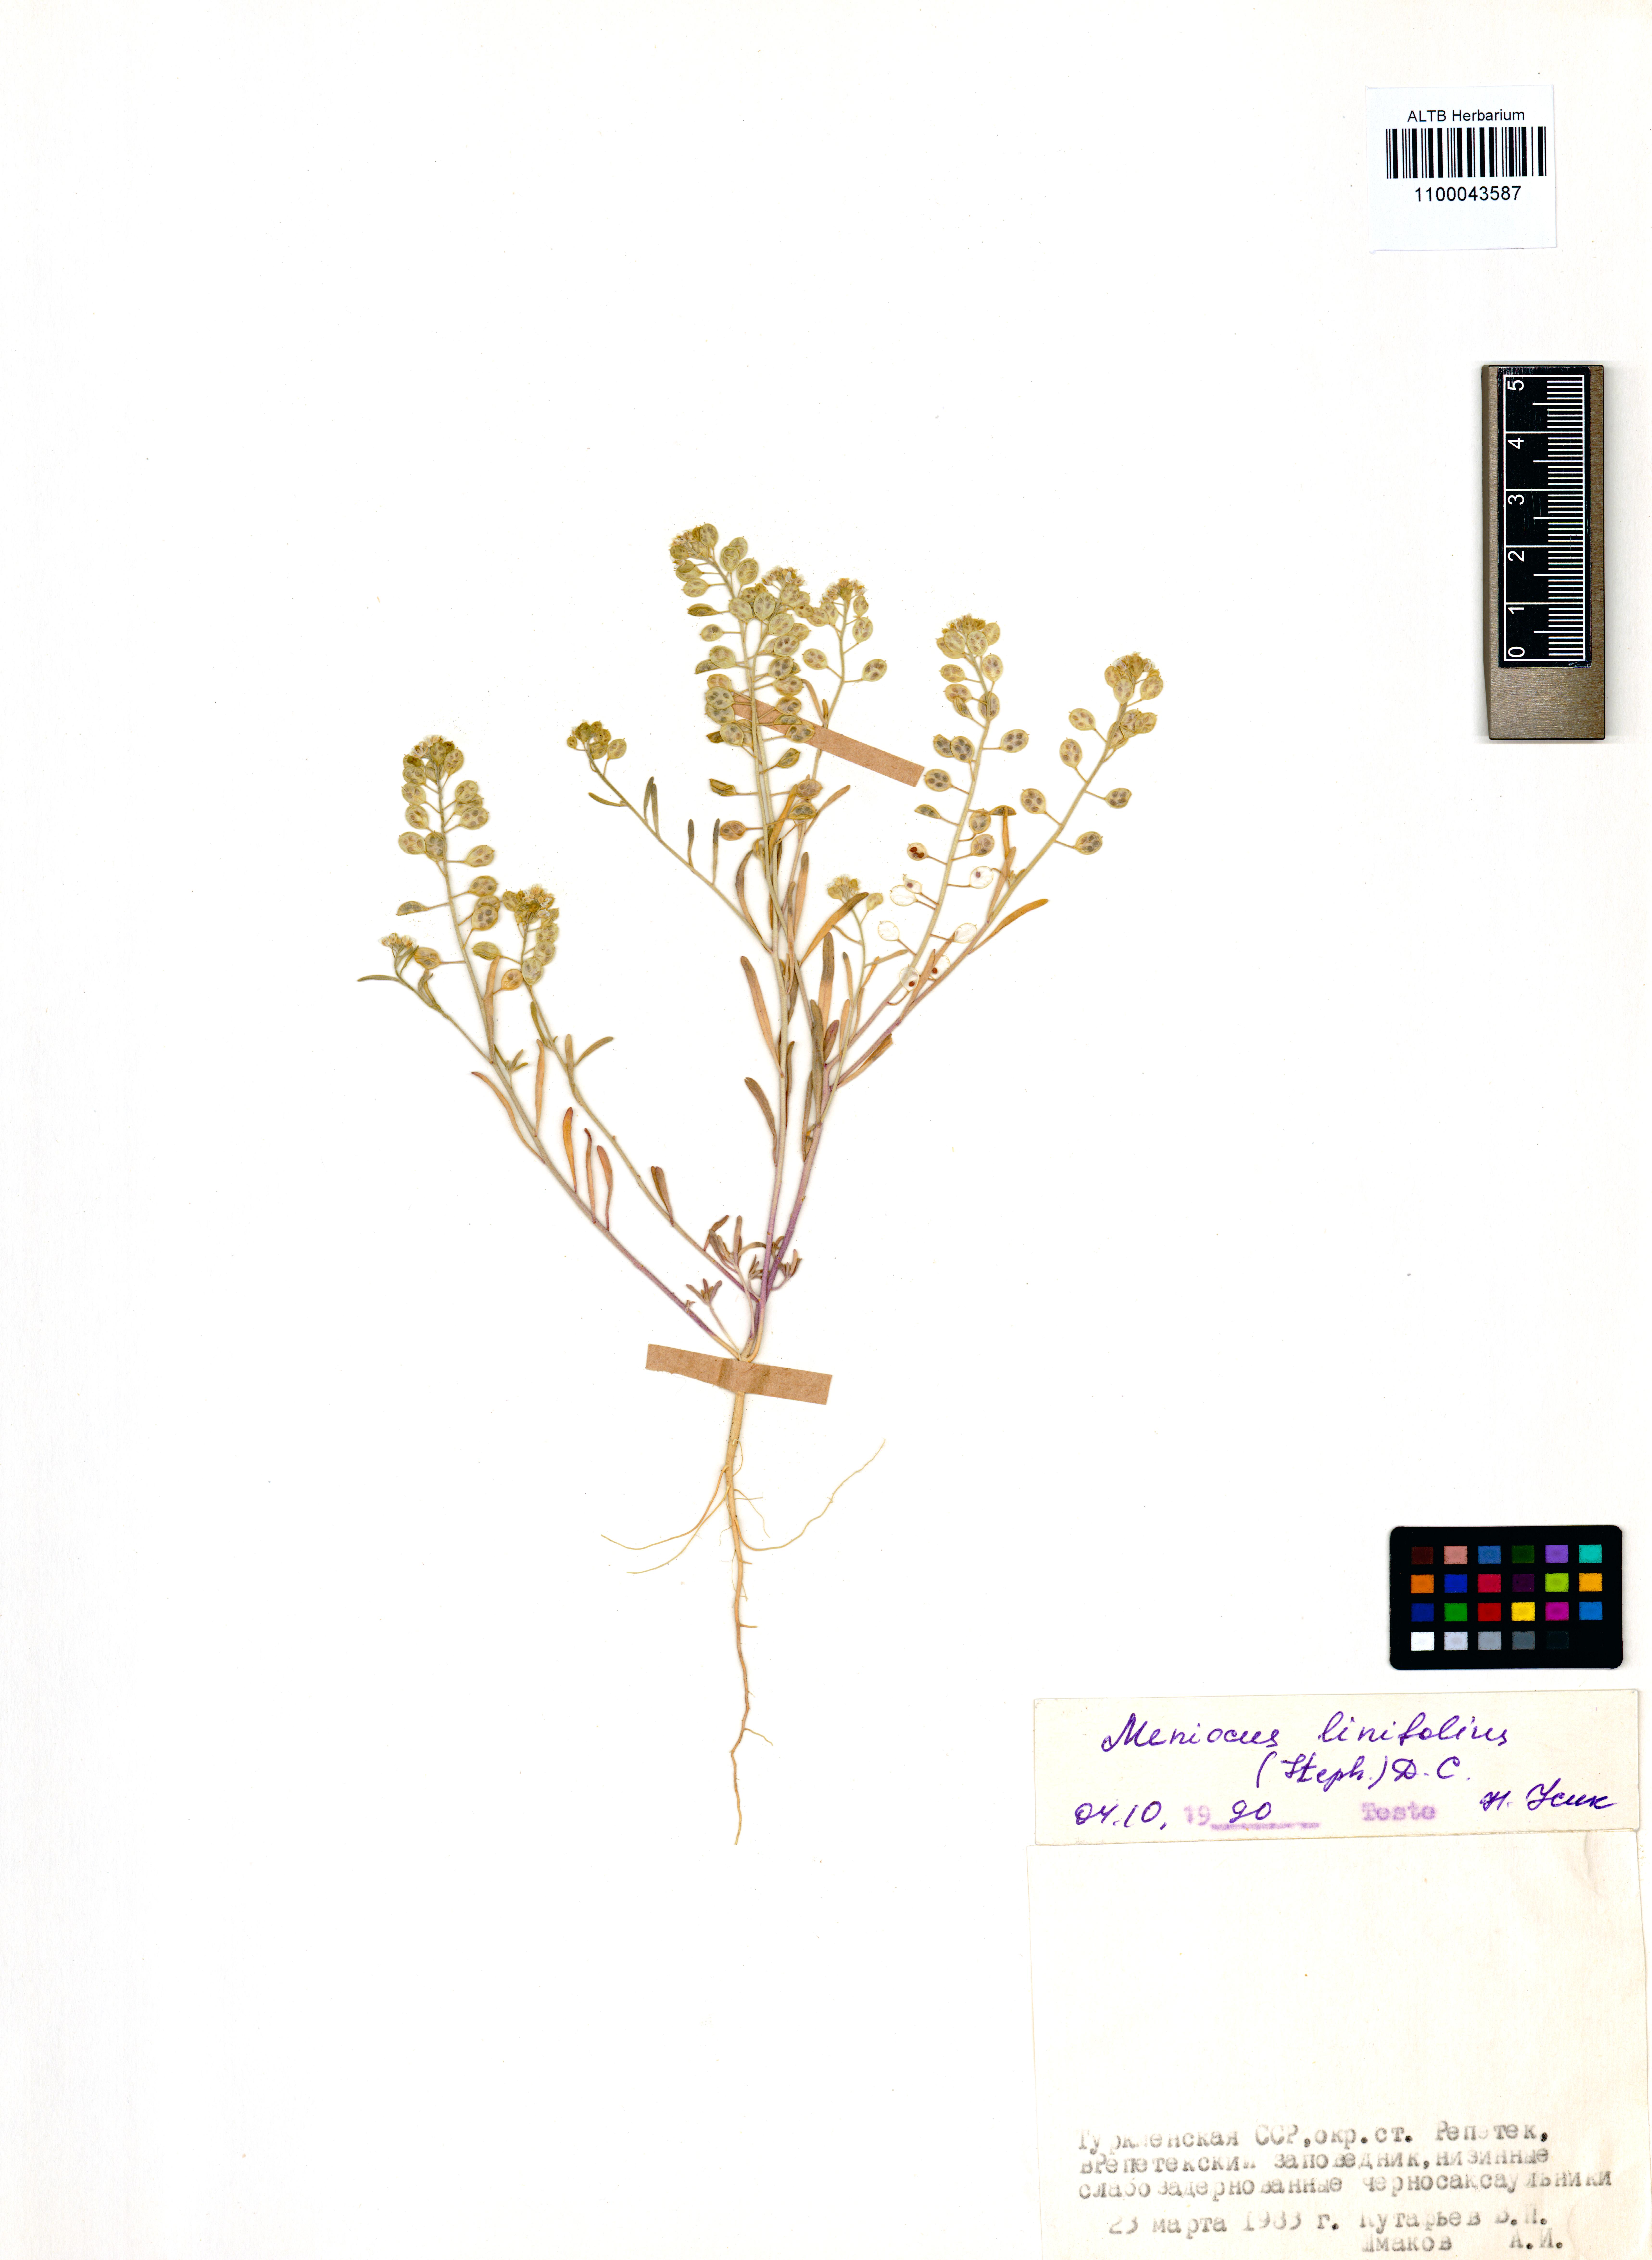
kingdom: Plantae
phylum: Tracheophyta
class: Magnoliopsida
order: Brassicales
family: Brassicaceae
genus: Meniocus
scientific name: Meniocus linifolius
